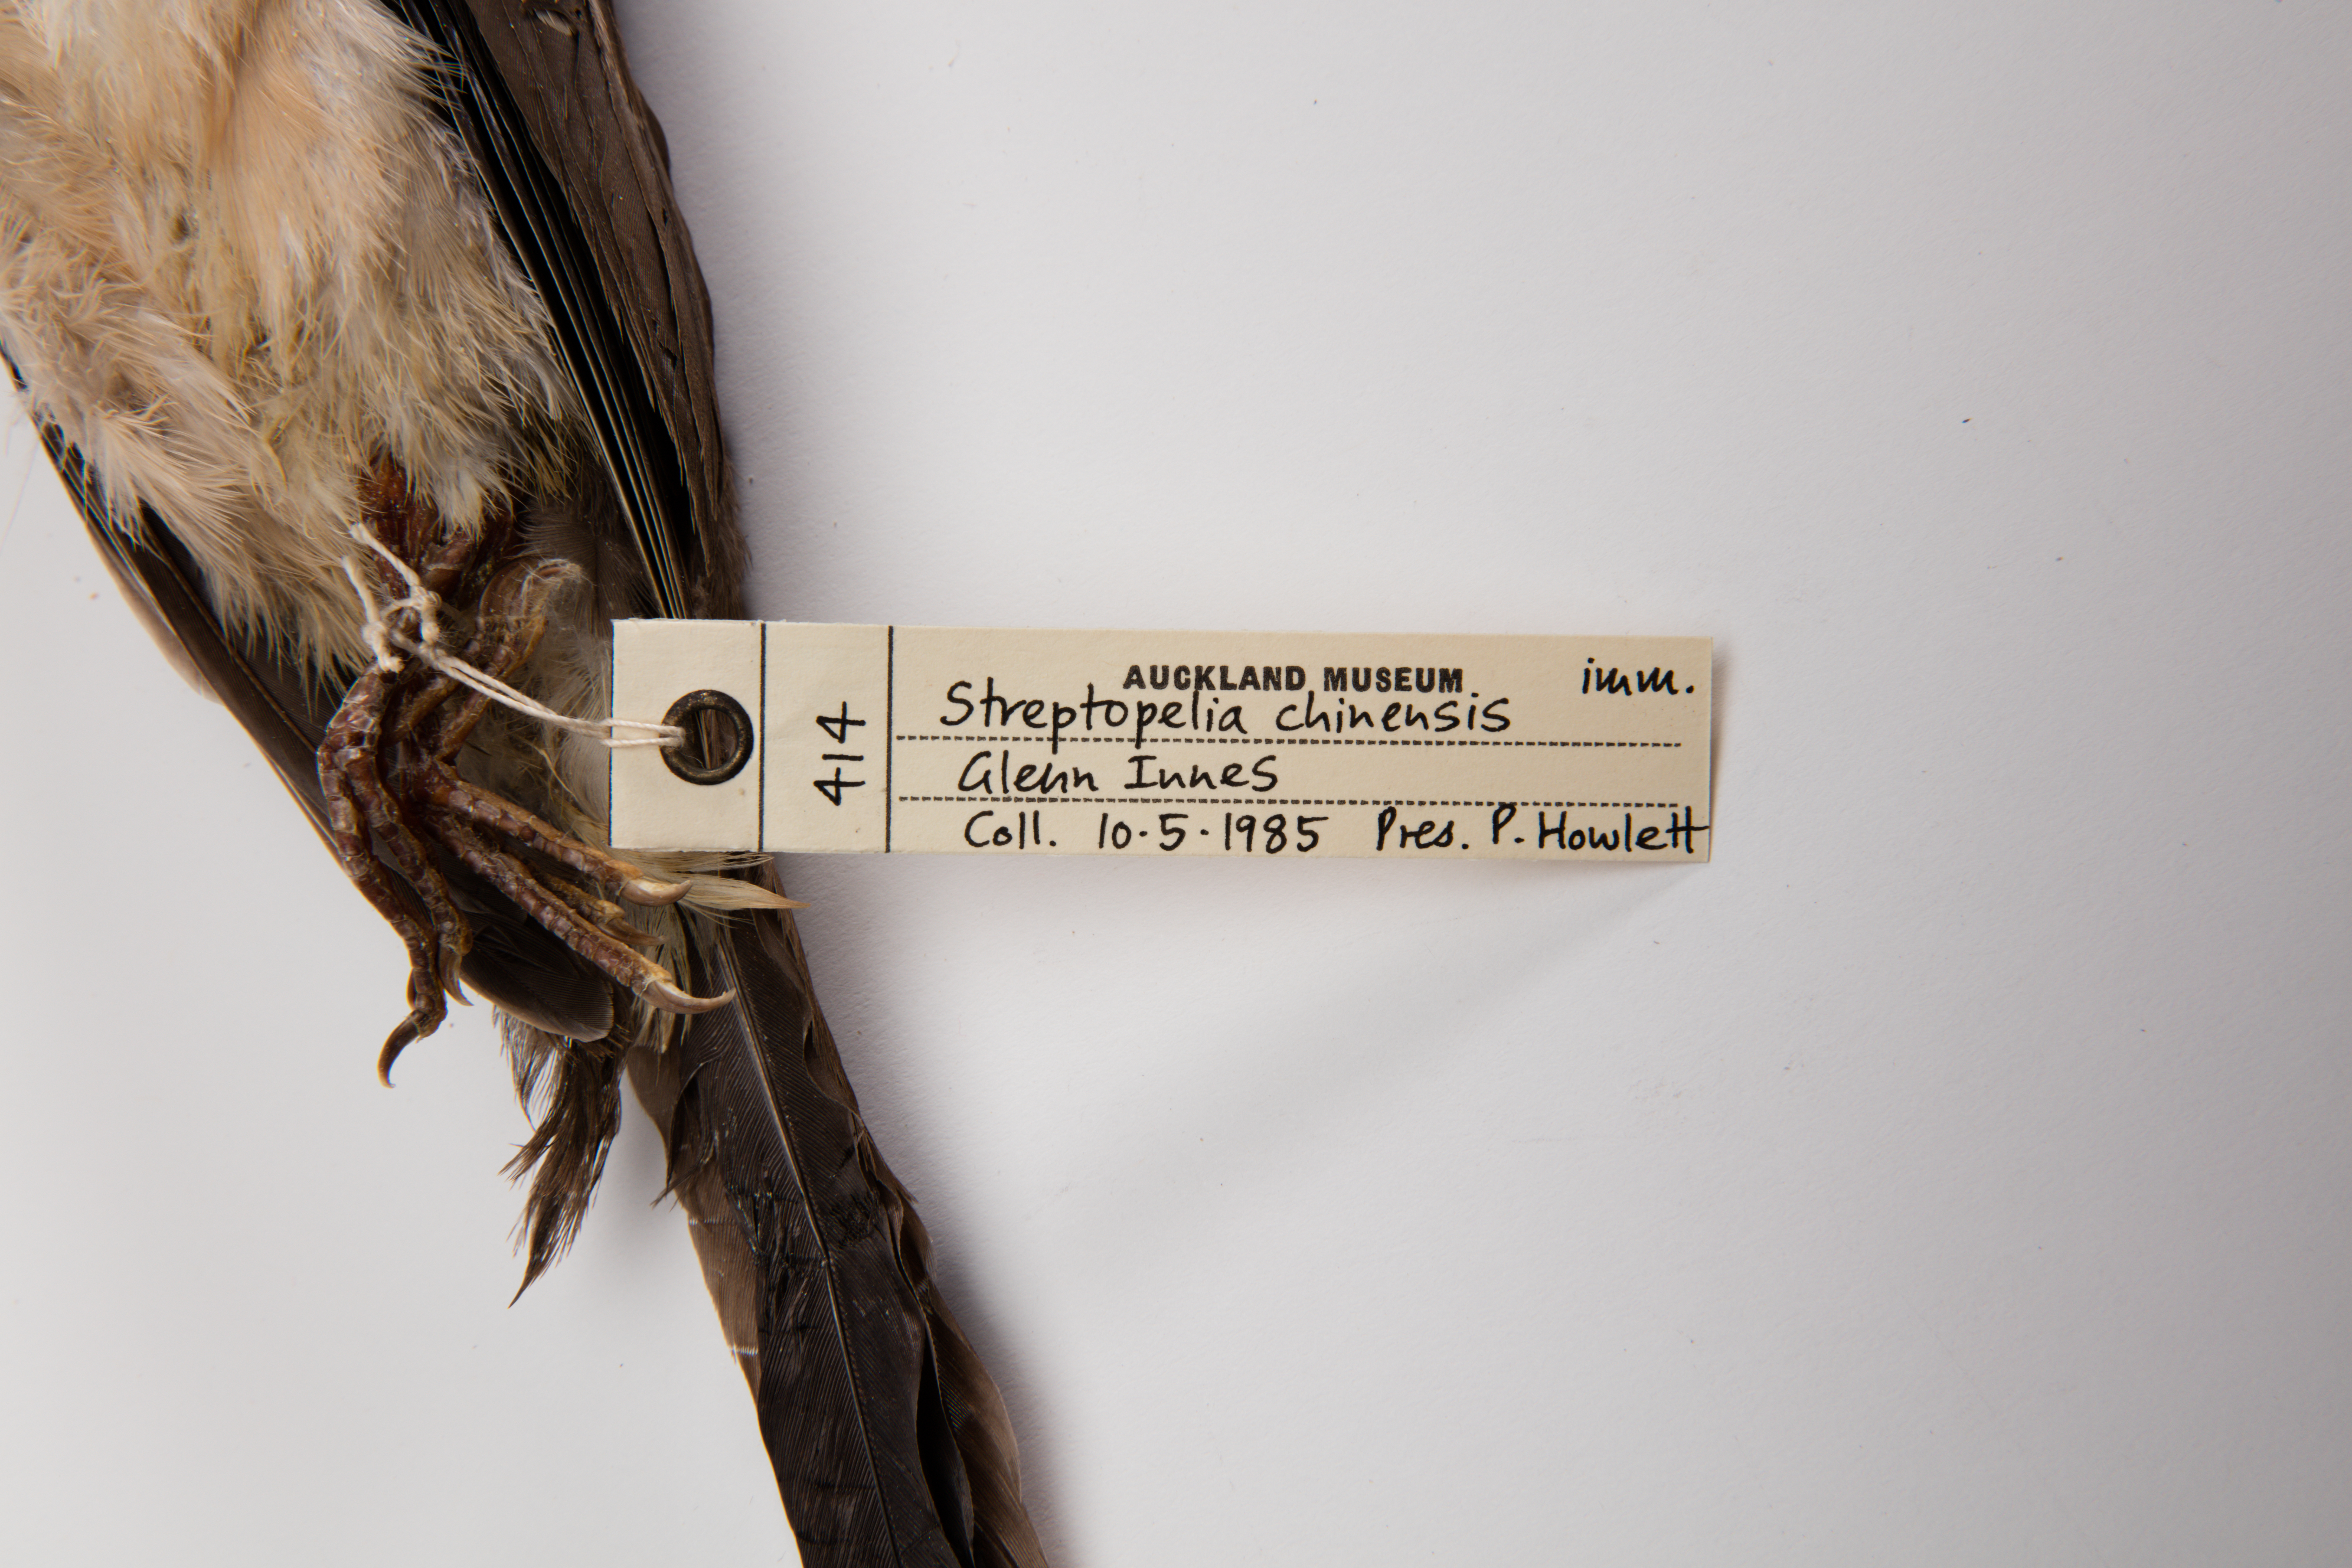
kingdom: Animalia
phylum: Chordata
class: Aves
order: Columbiformes
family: Columbidae
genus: Spilopelia
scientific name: Spilopelia chinensis
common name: Spotted dove
